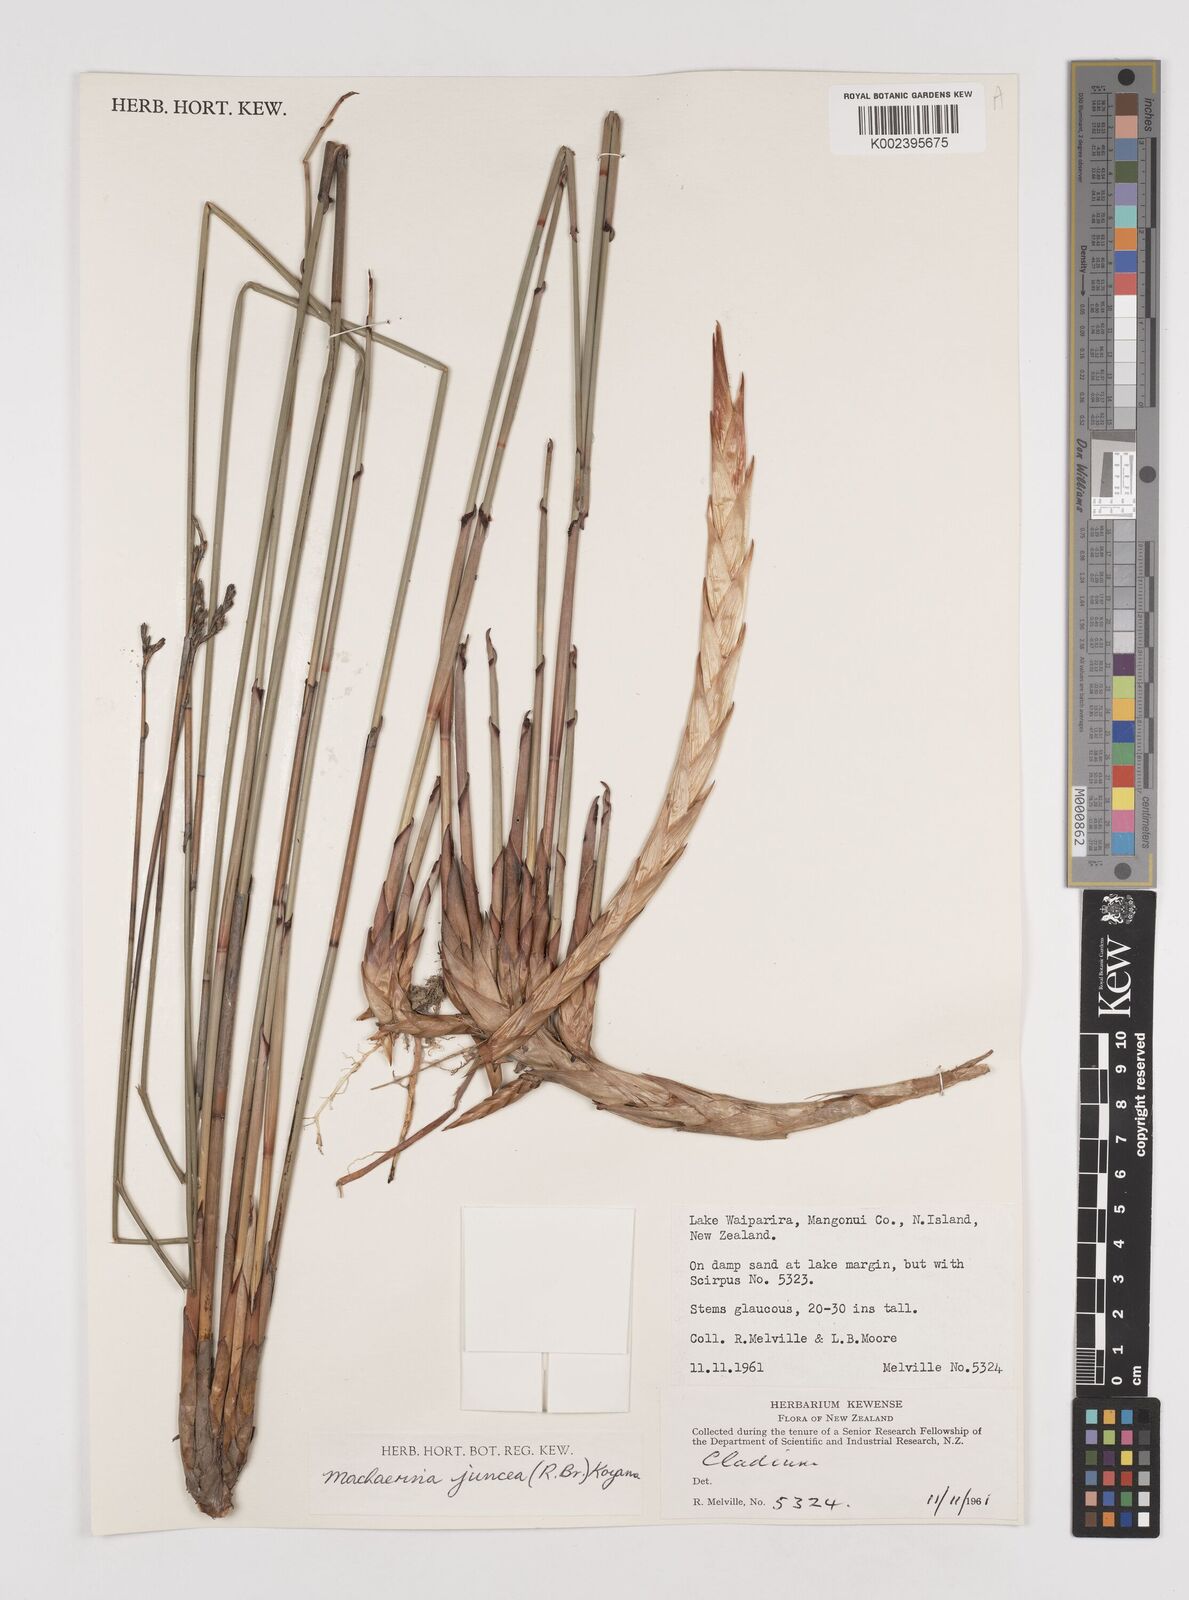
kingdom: Plantae
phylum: Tracheophyta
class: Liliopsida
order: Poales
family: Cyperaceae
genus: Machaerina
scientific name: Machaerina juncea
